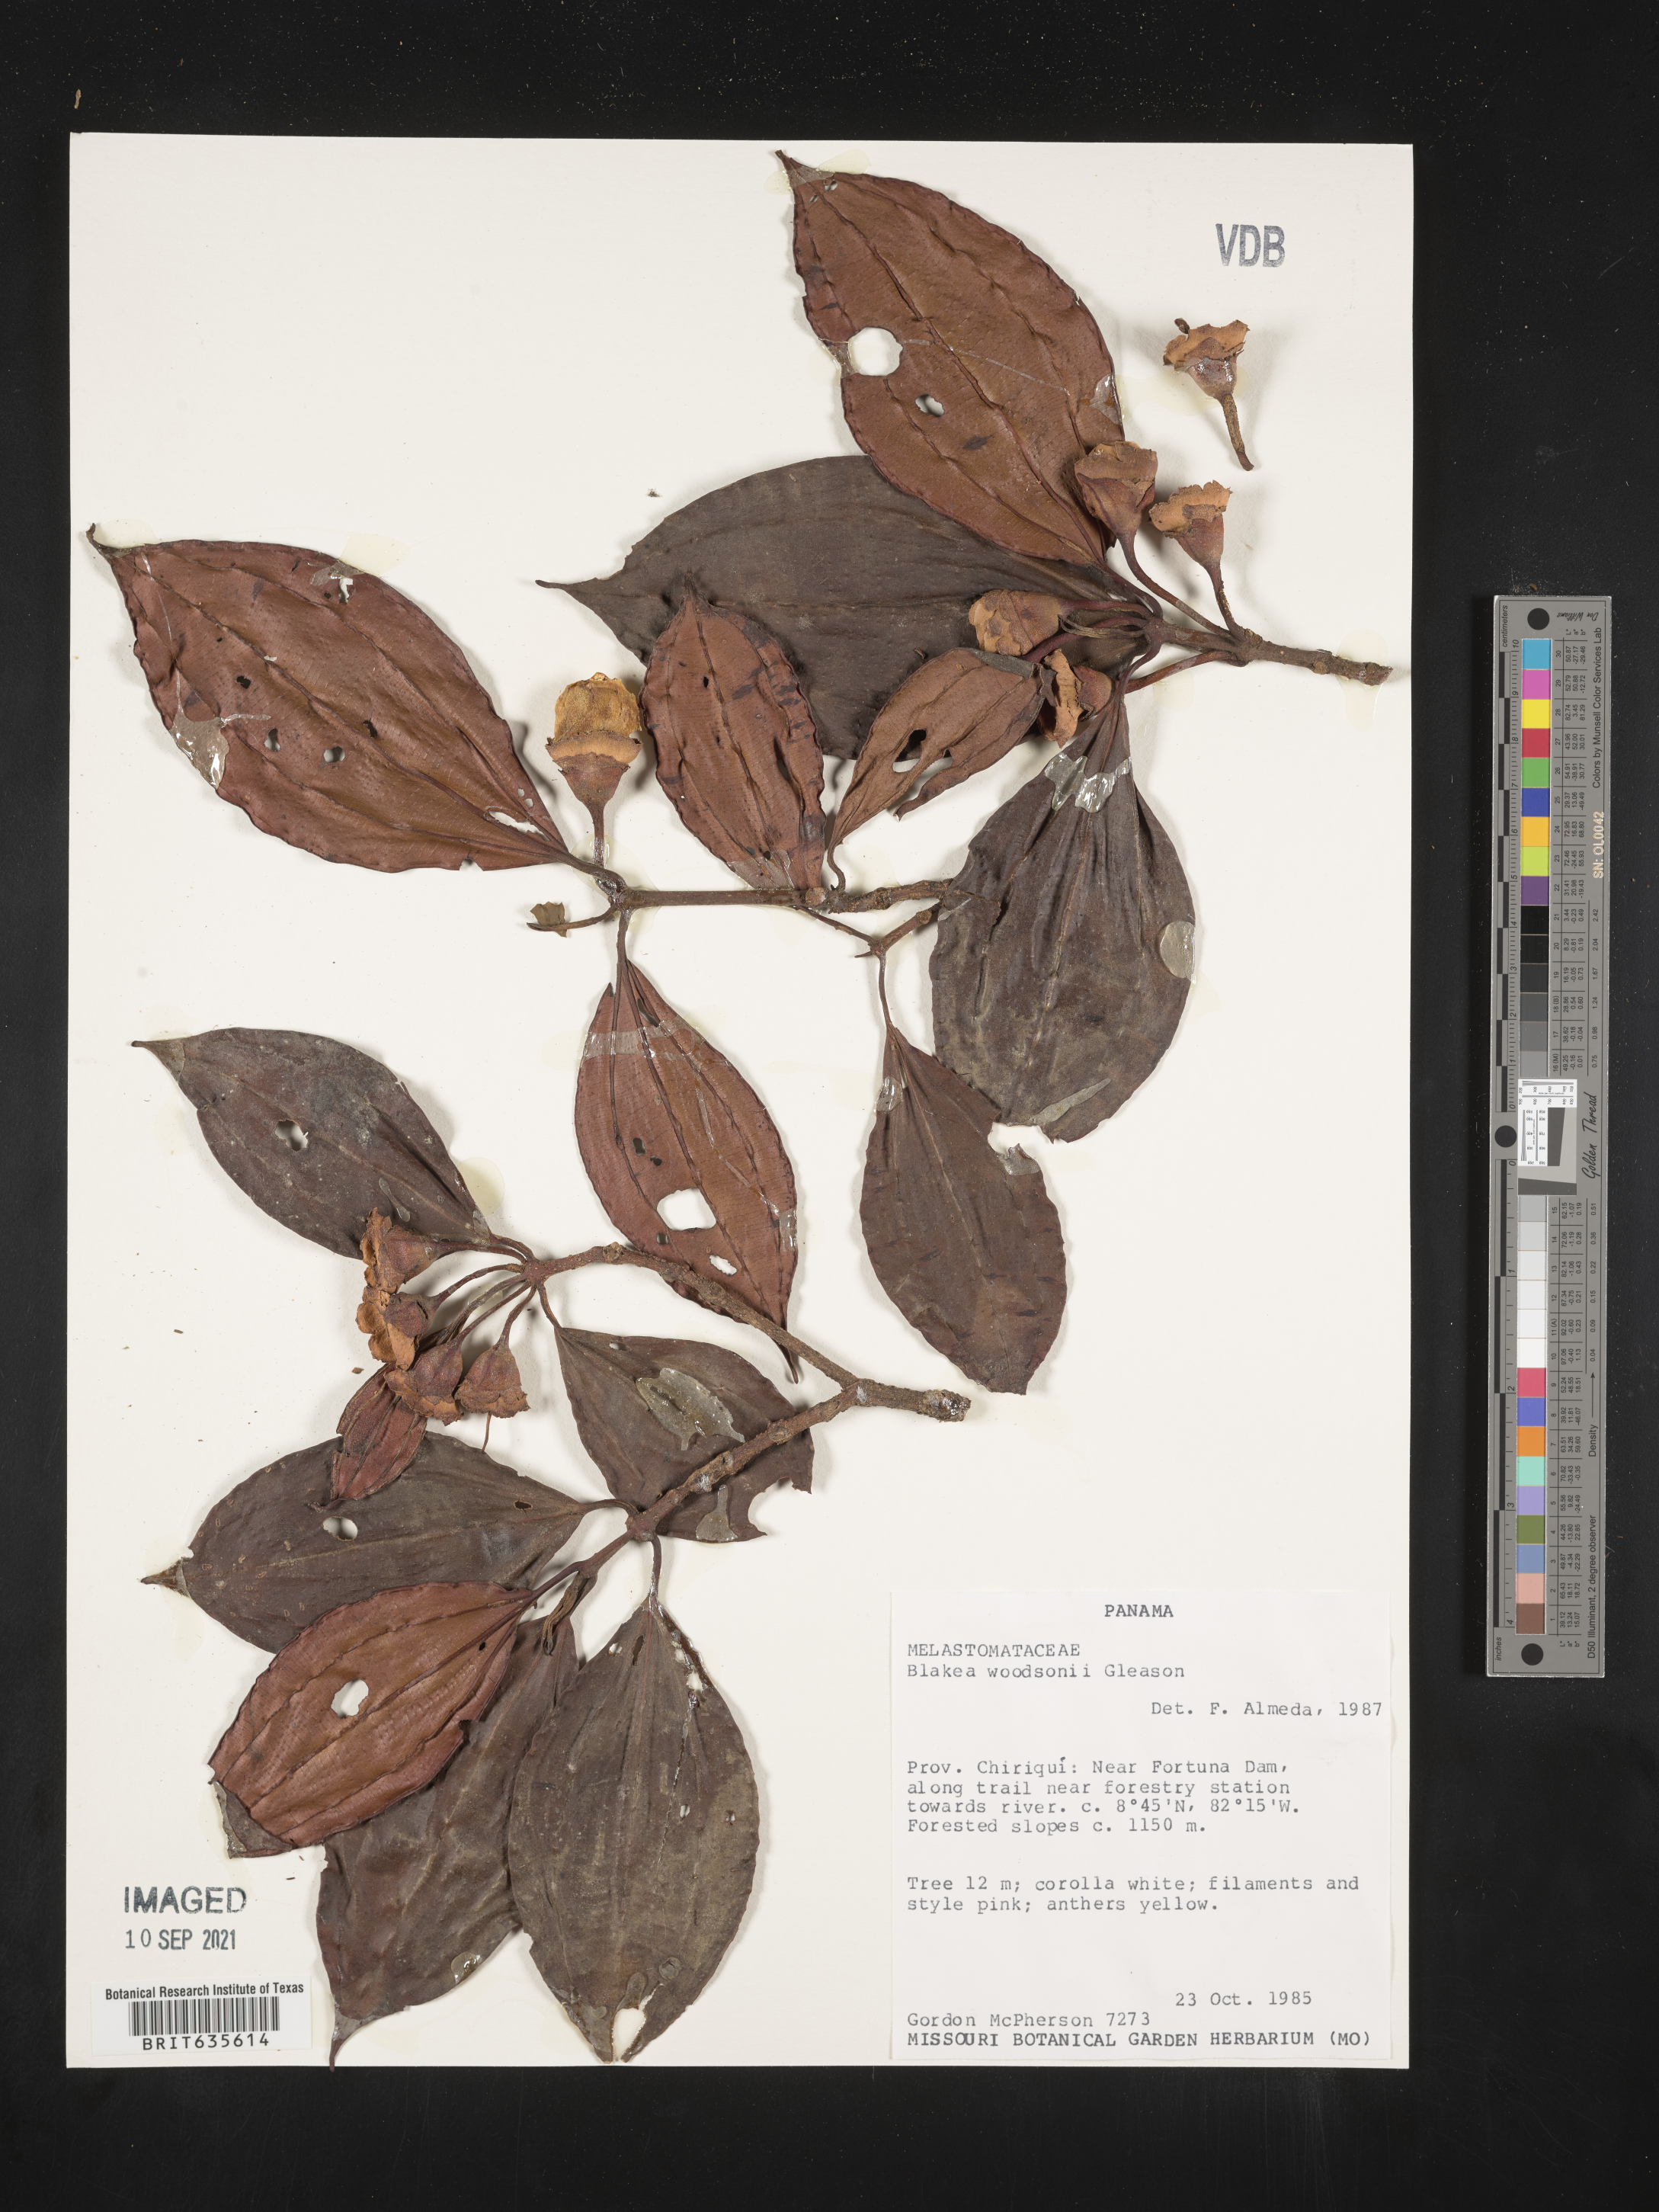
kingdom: Plantae
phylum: Tracheophyta
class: Magnoliopsida
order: Myrtales
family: Melastomataceae
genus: Blakea
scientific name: Blakea
